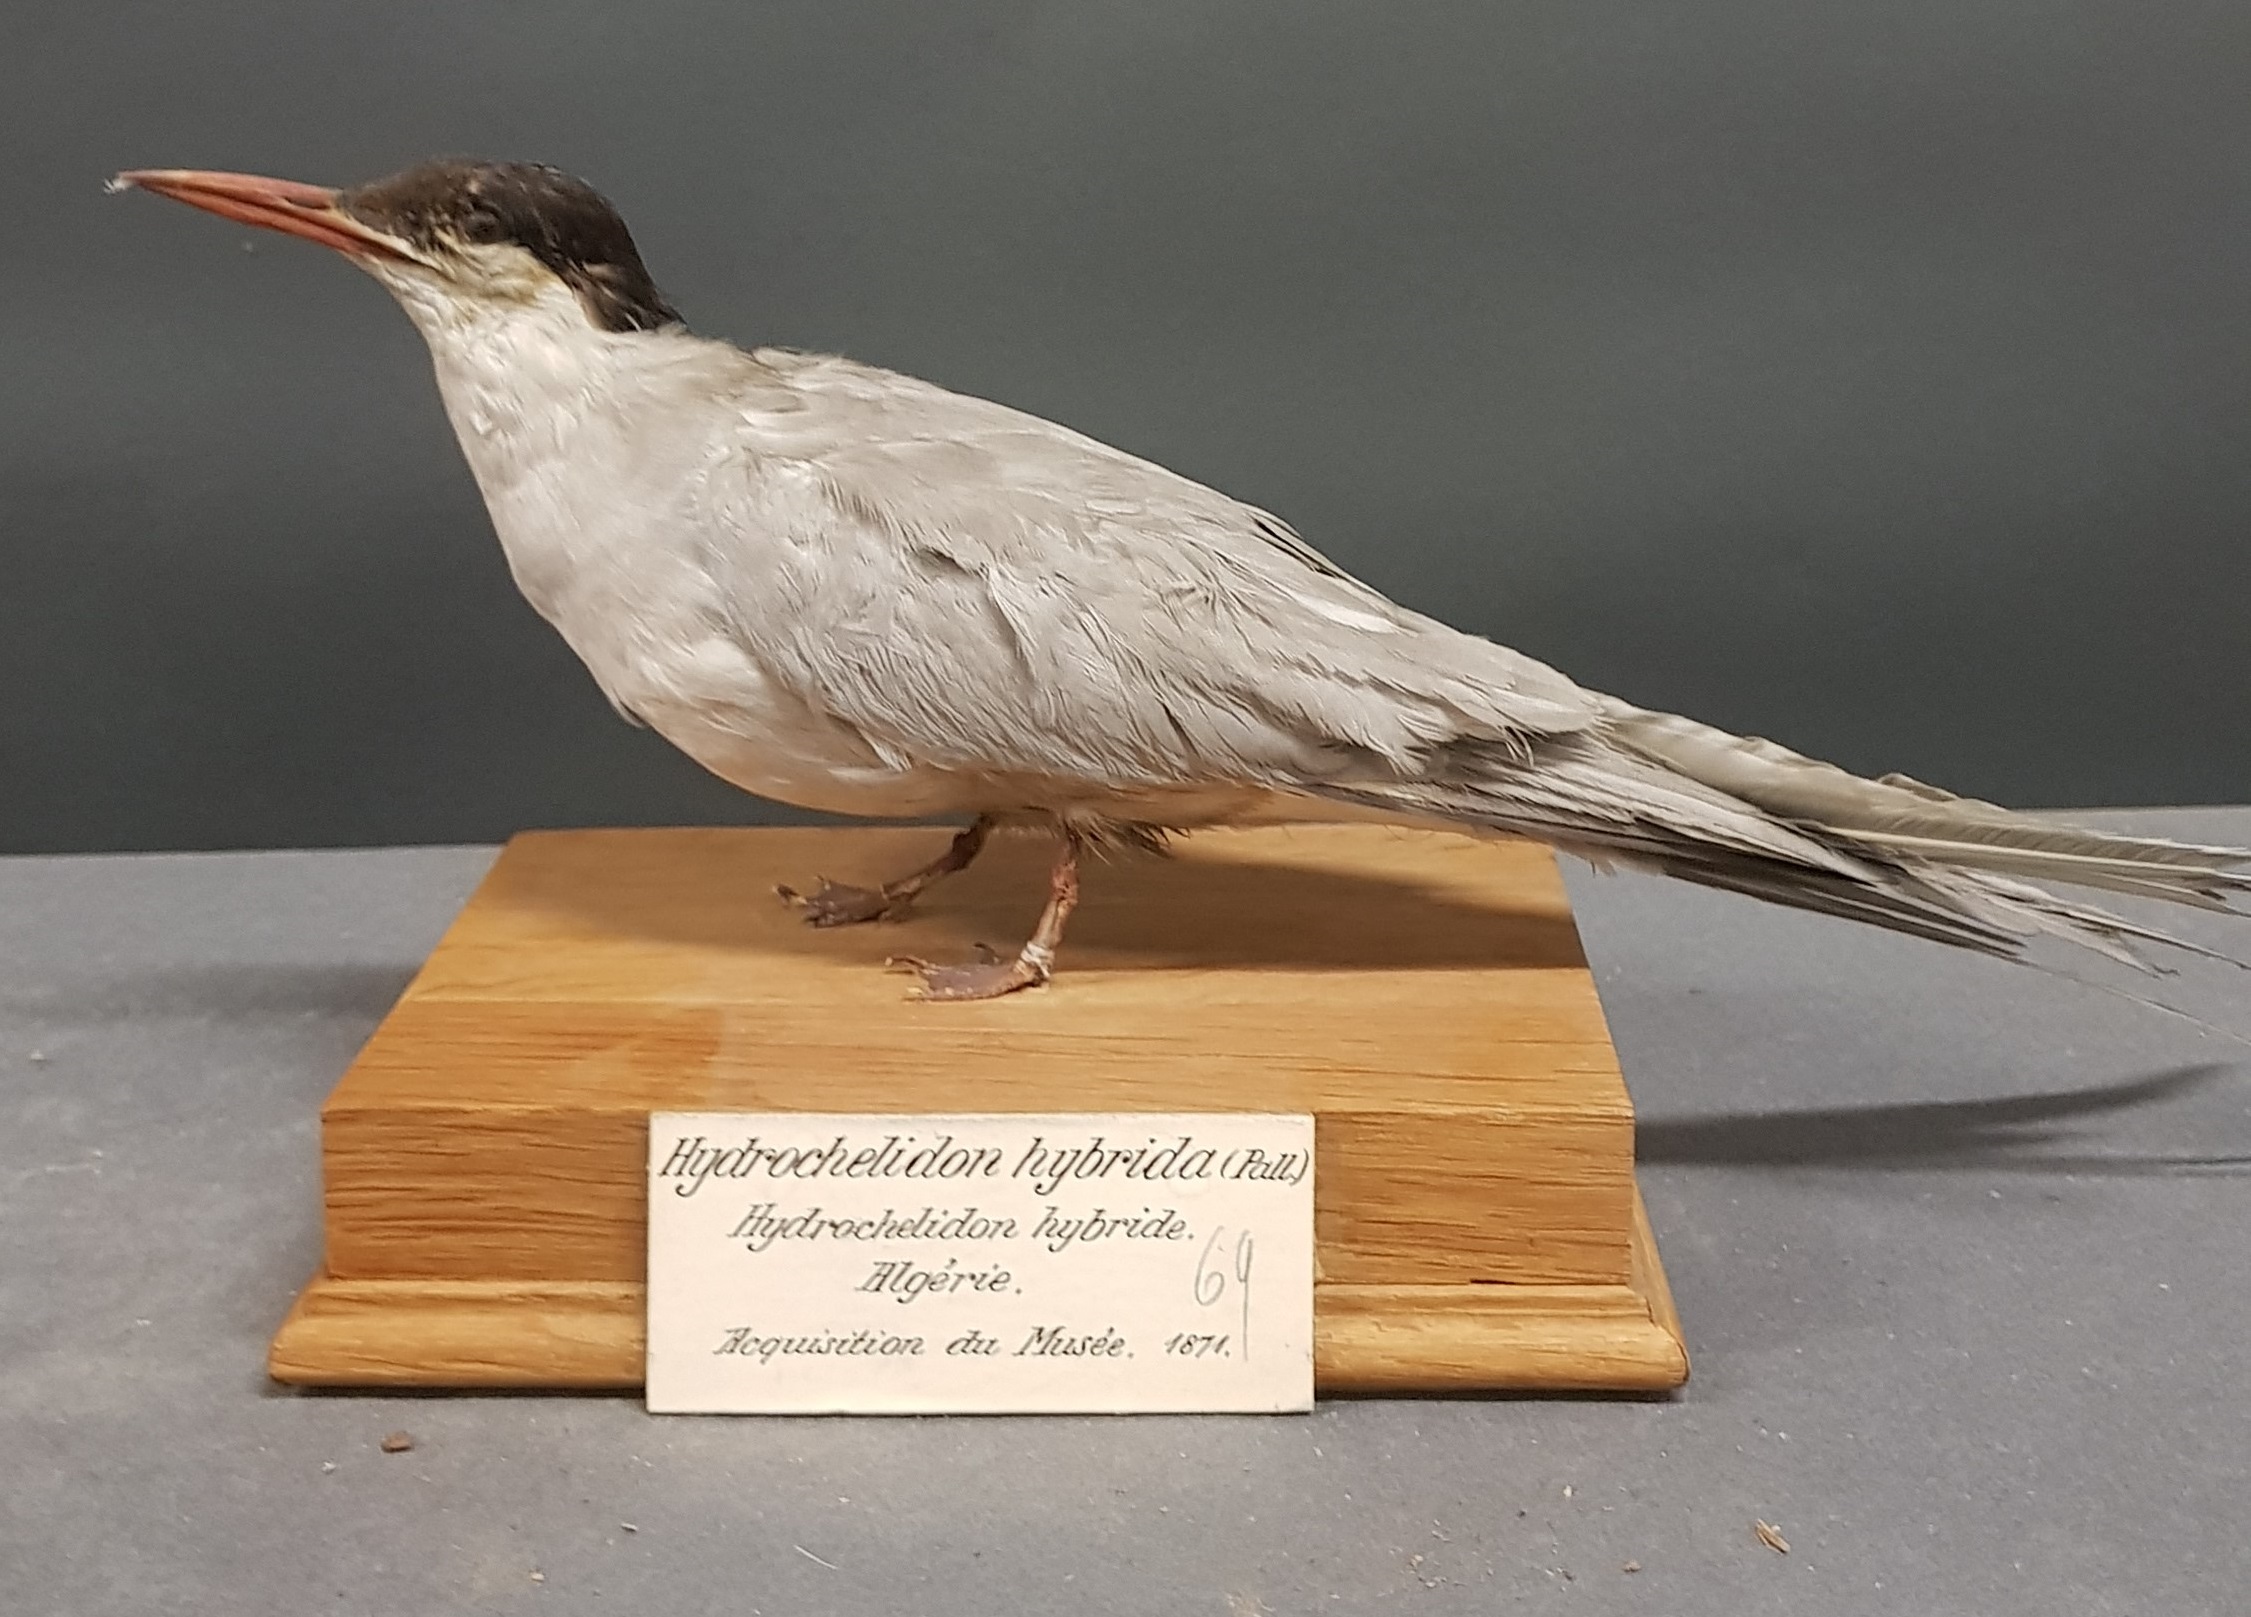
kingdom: Animalia
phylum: Chordata
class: Aves
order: Charadriiformes
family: Laridae
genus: Chlidonias
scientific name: Chlidonias hybrida
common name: Whiskered tern
